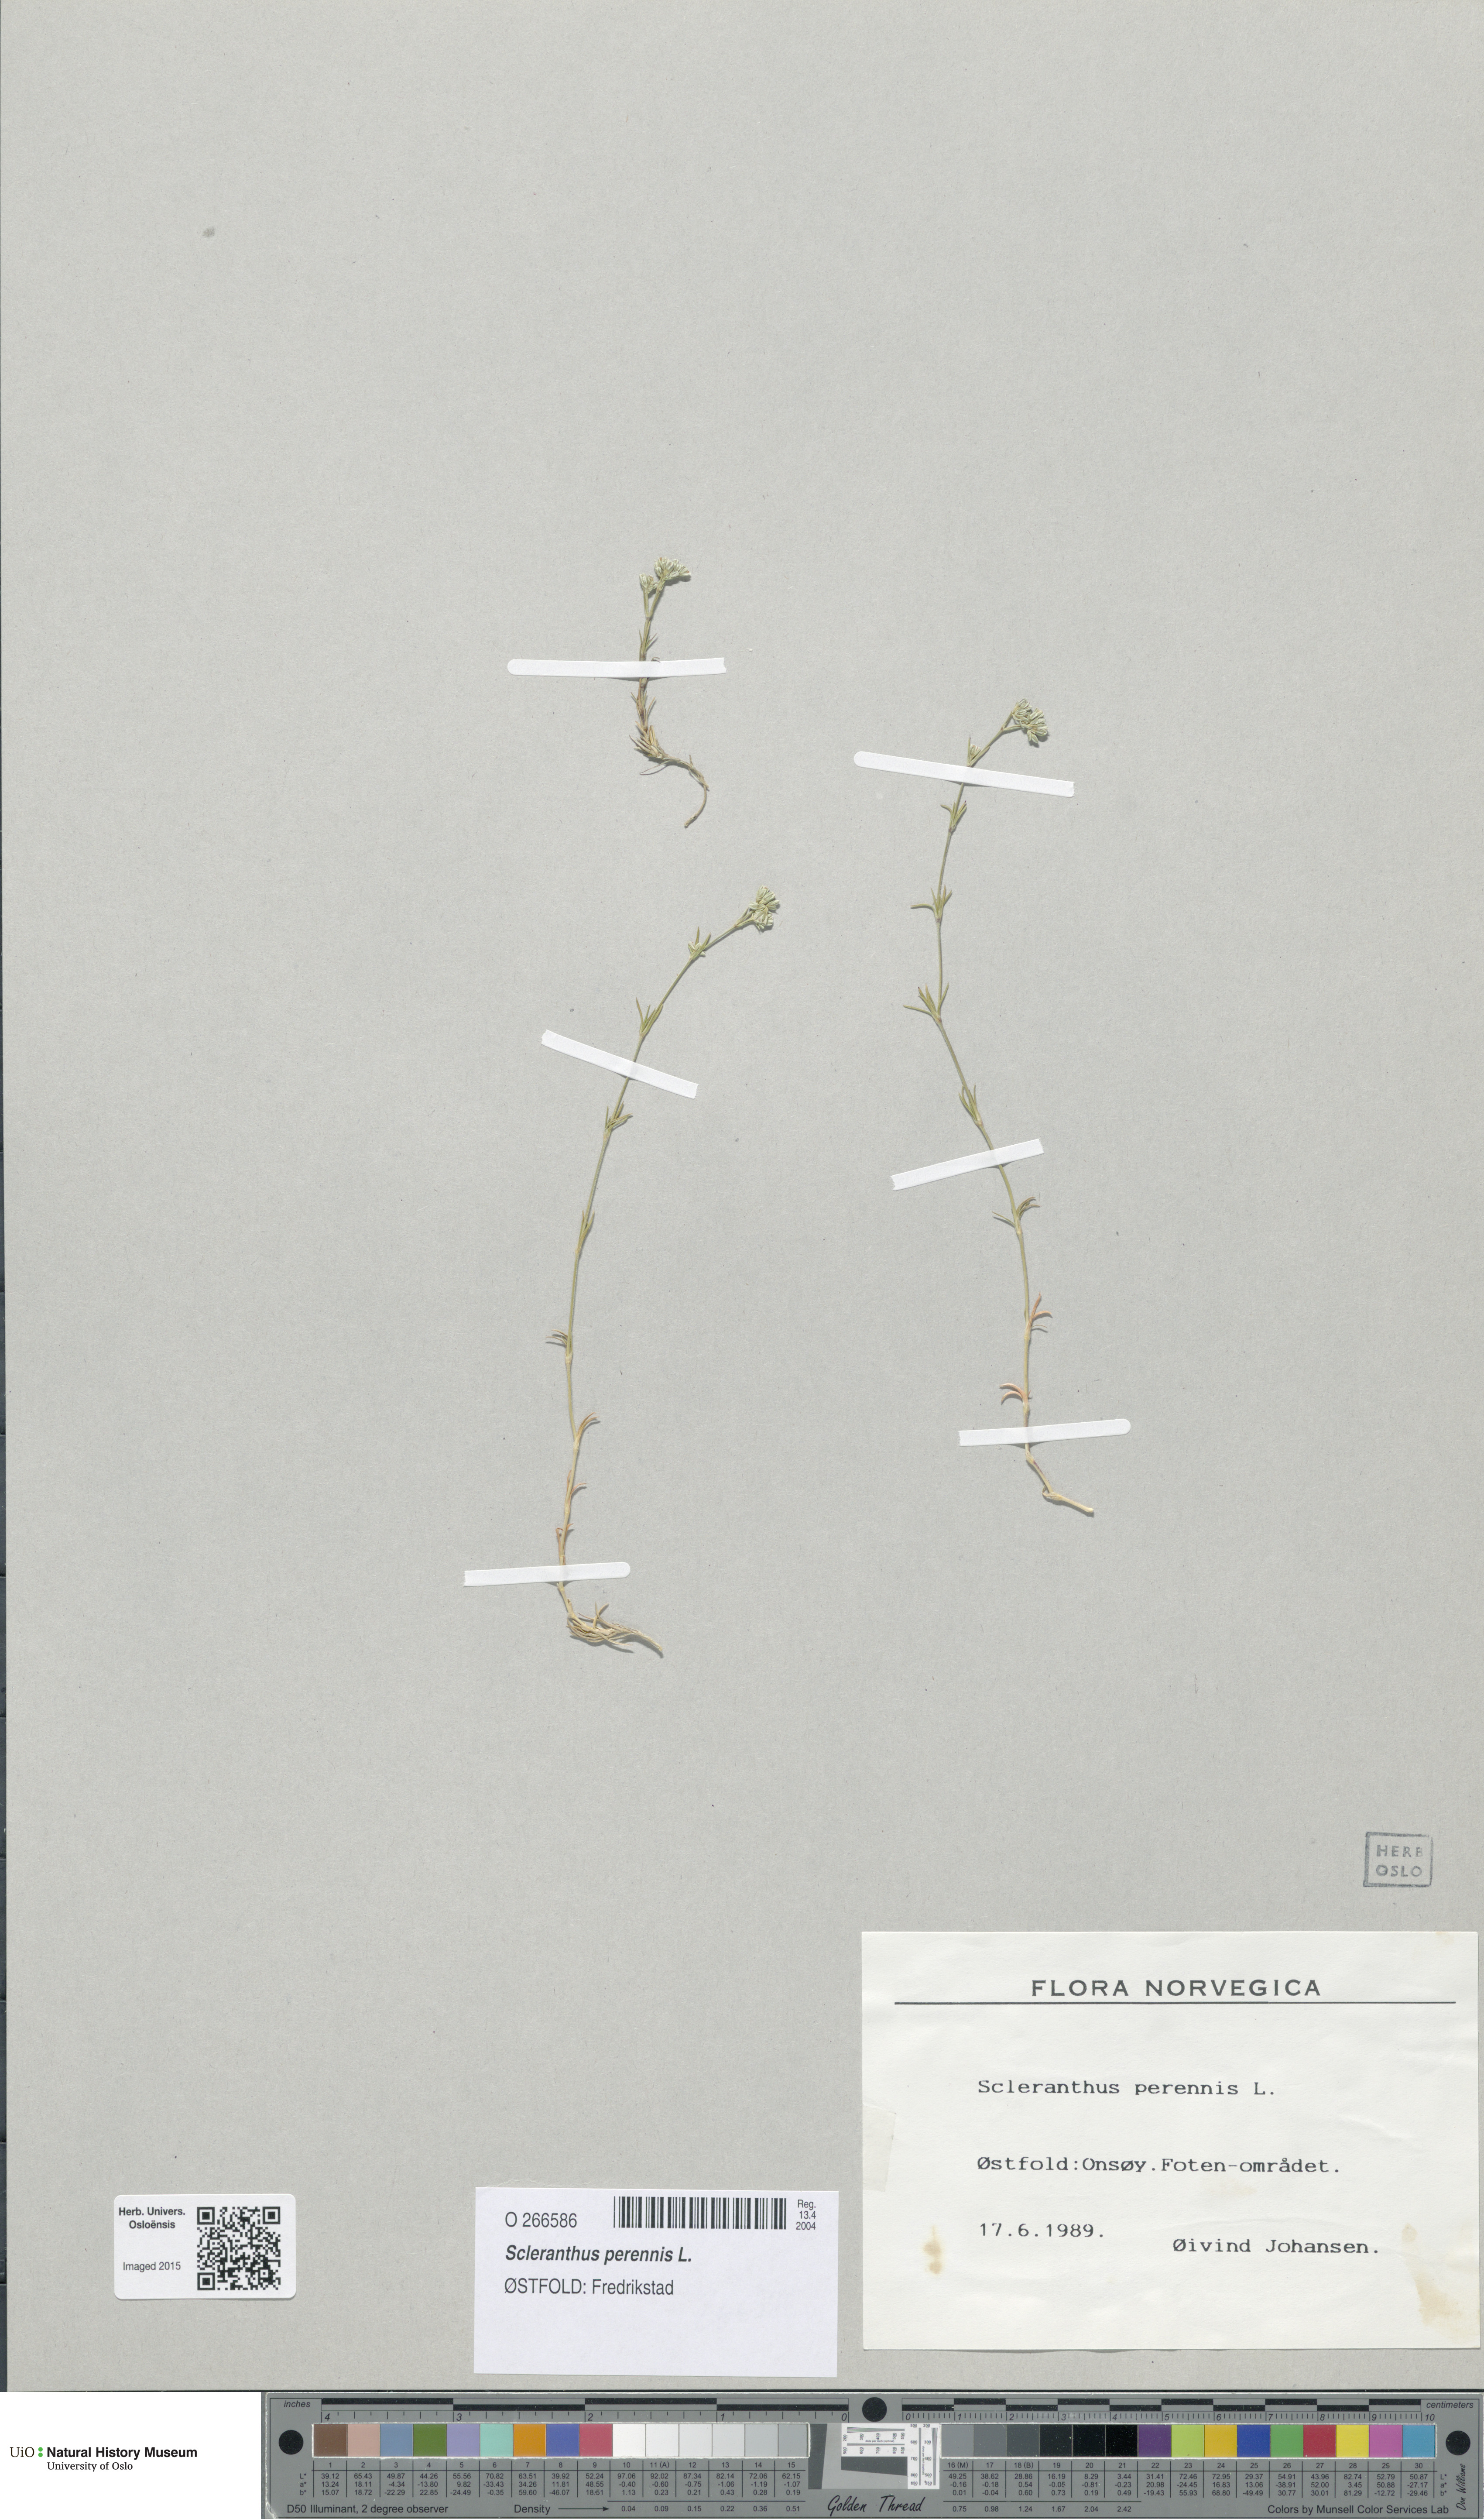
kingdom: Plantae
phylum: Tracheophyta
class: Magnoliopsida
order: Caryophyllales
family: Caryophyllaceae
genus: Scleranthus
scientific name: Scleranthus perennis
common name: Perennial knawel
